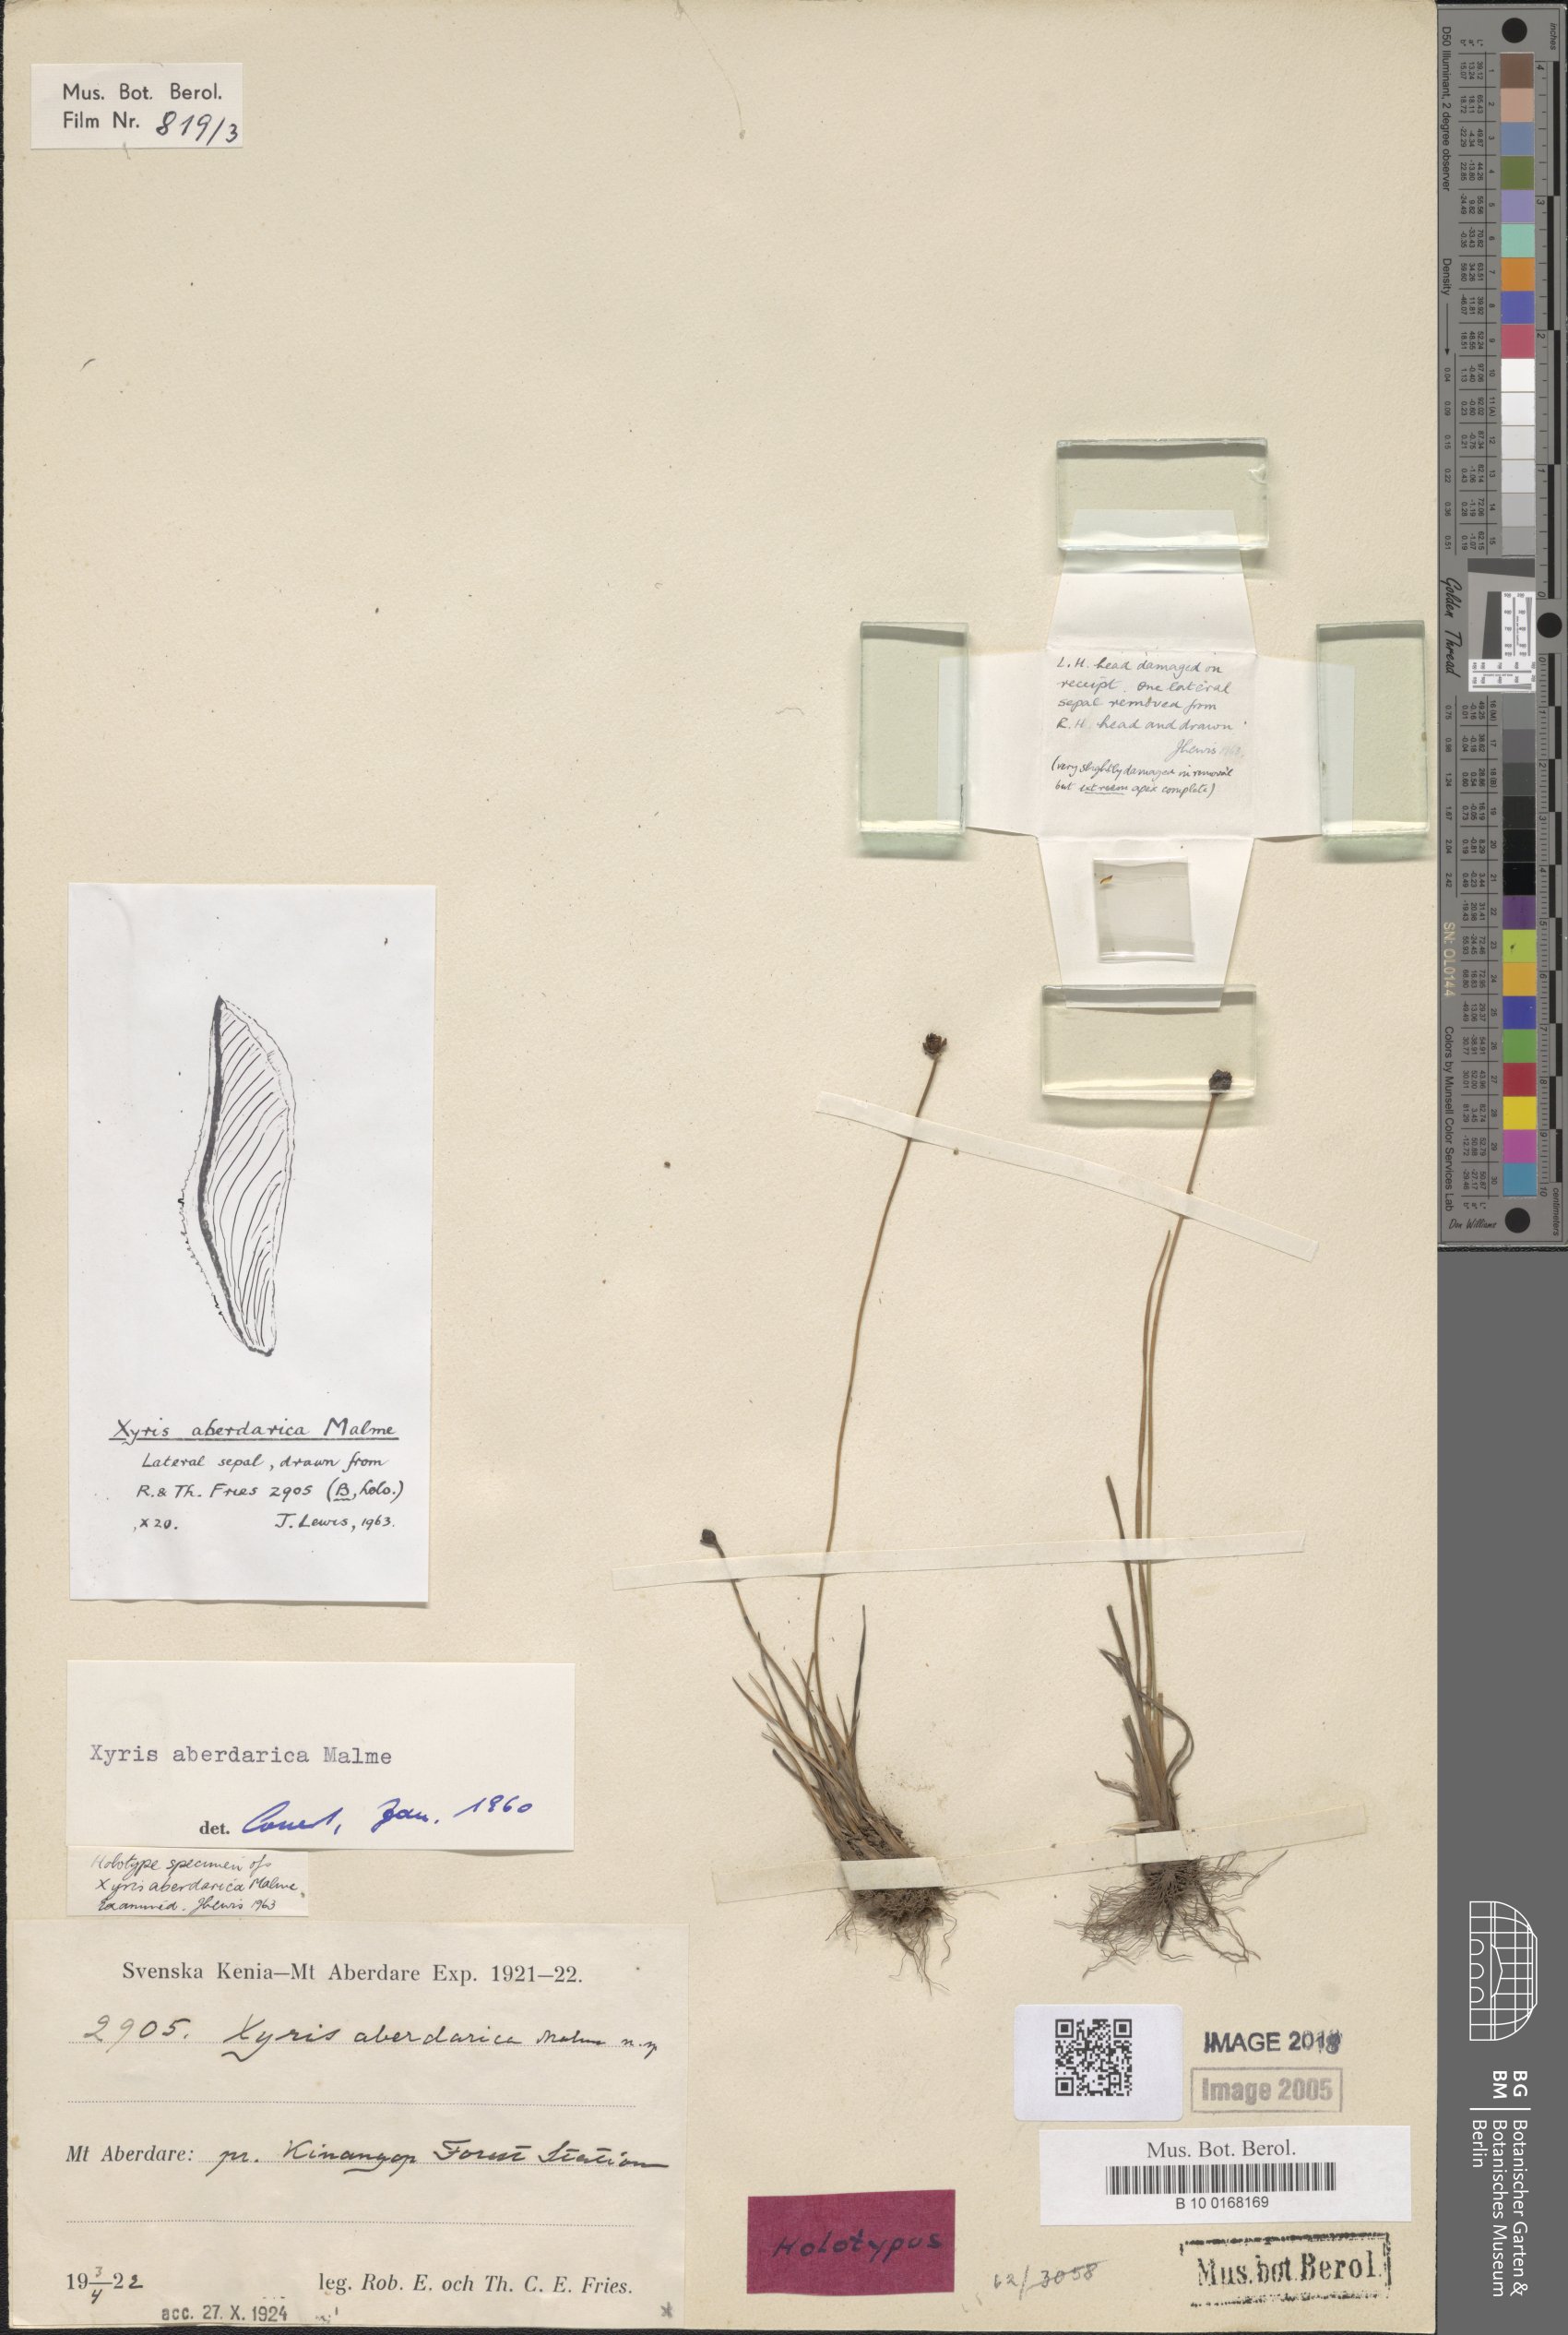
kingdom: Plantae
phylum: Tracheophyta
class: Liliopsida
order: Poales
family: Xyridaceae
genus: Xyris
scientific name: Xyris aberdarica
